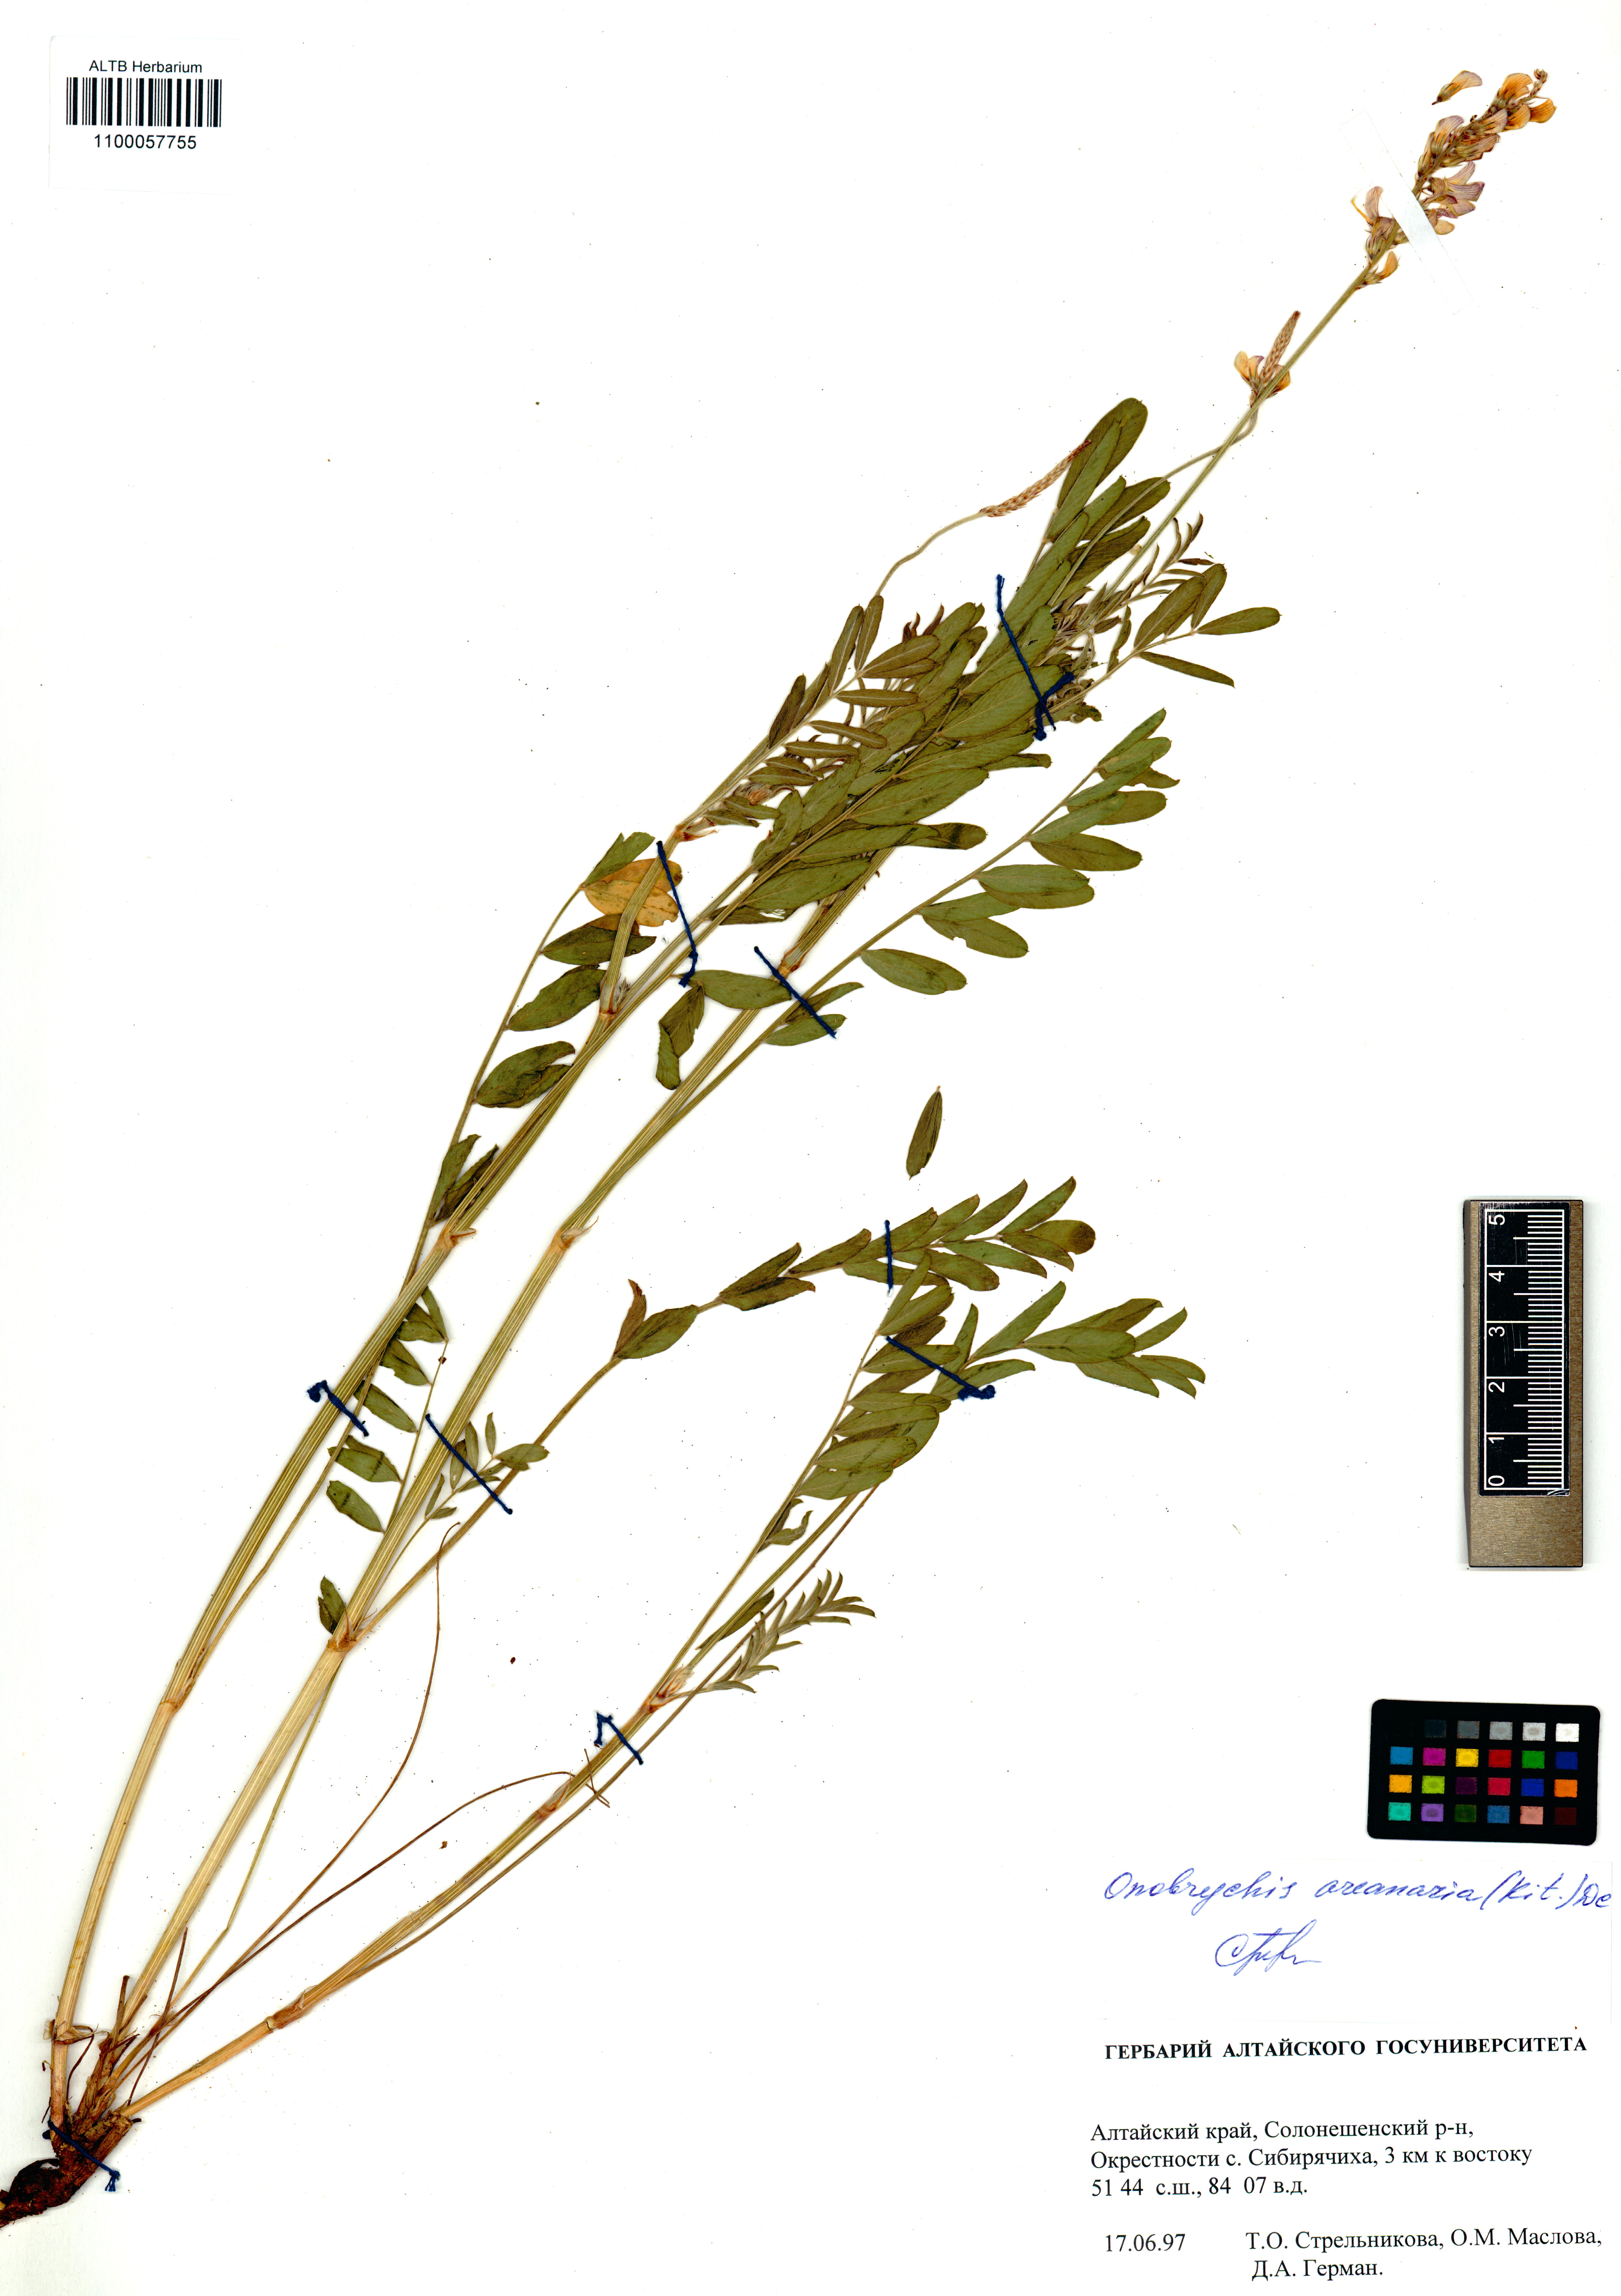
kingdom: Plantae
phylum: Tracheophyta
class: Magnoliopsida
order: Fabales
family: Fabaceae
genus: Onobrychis
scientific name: Onobrychis arenaria
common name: Sand esparcet
